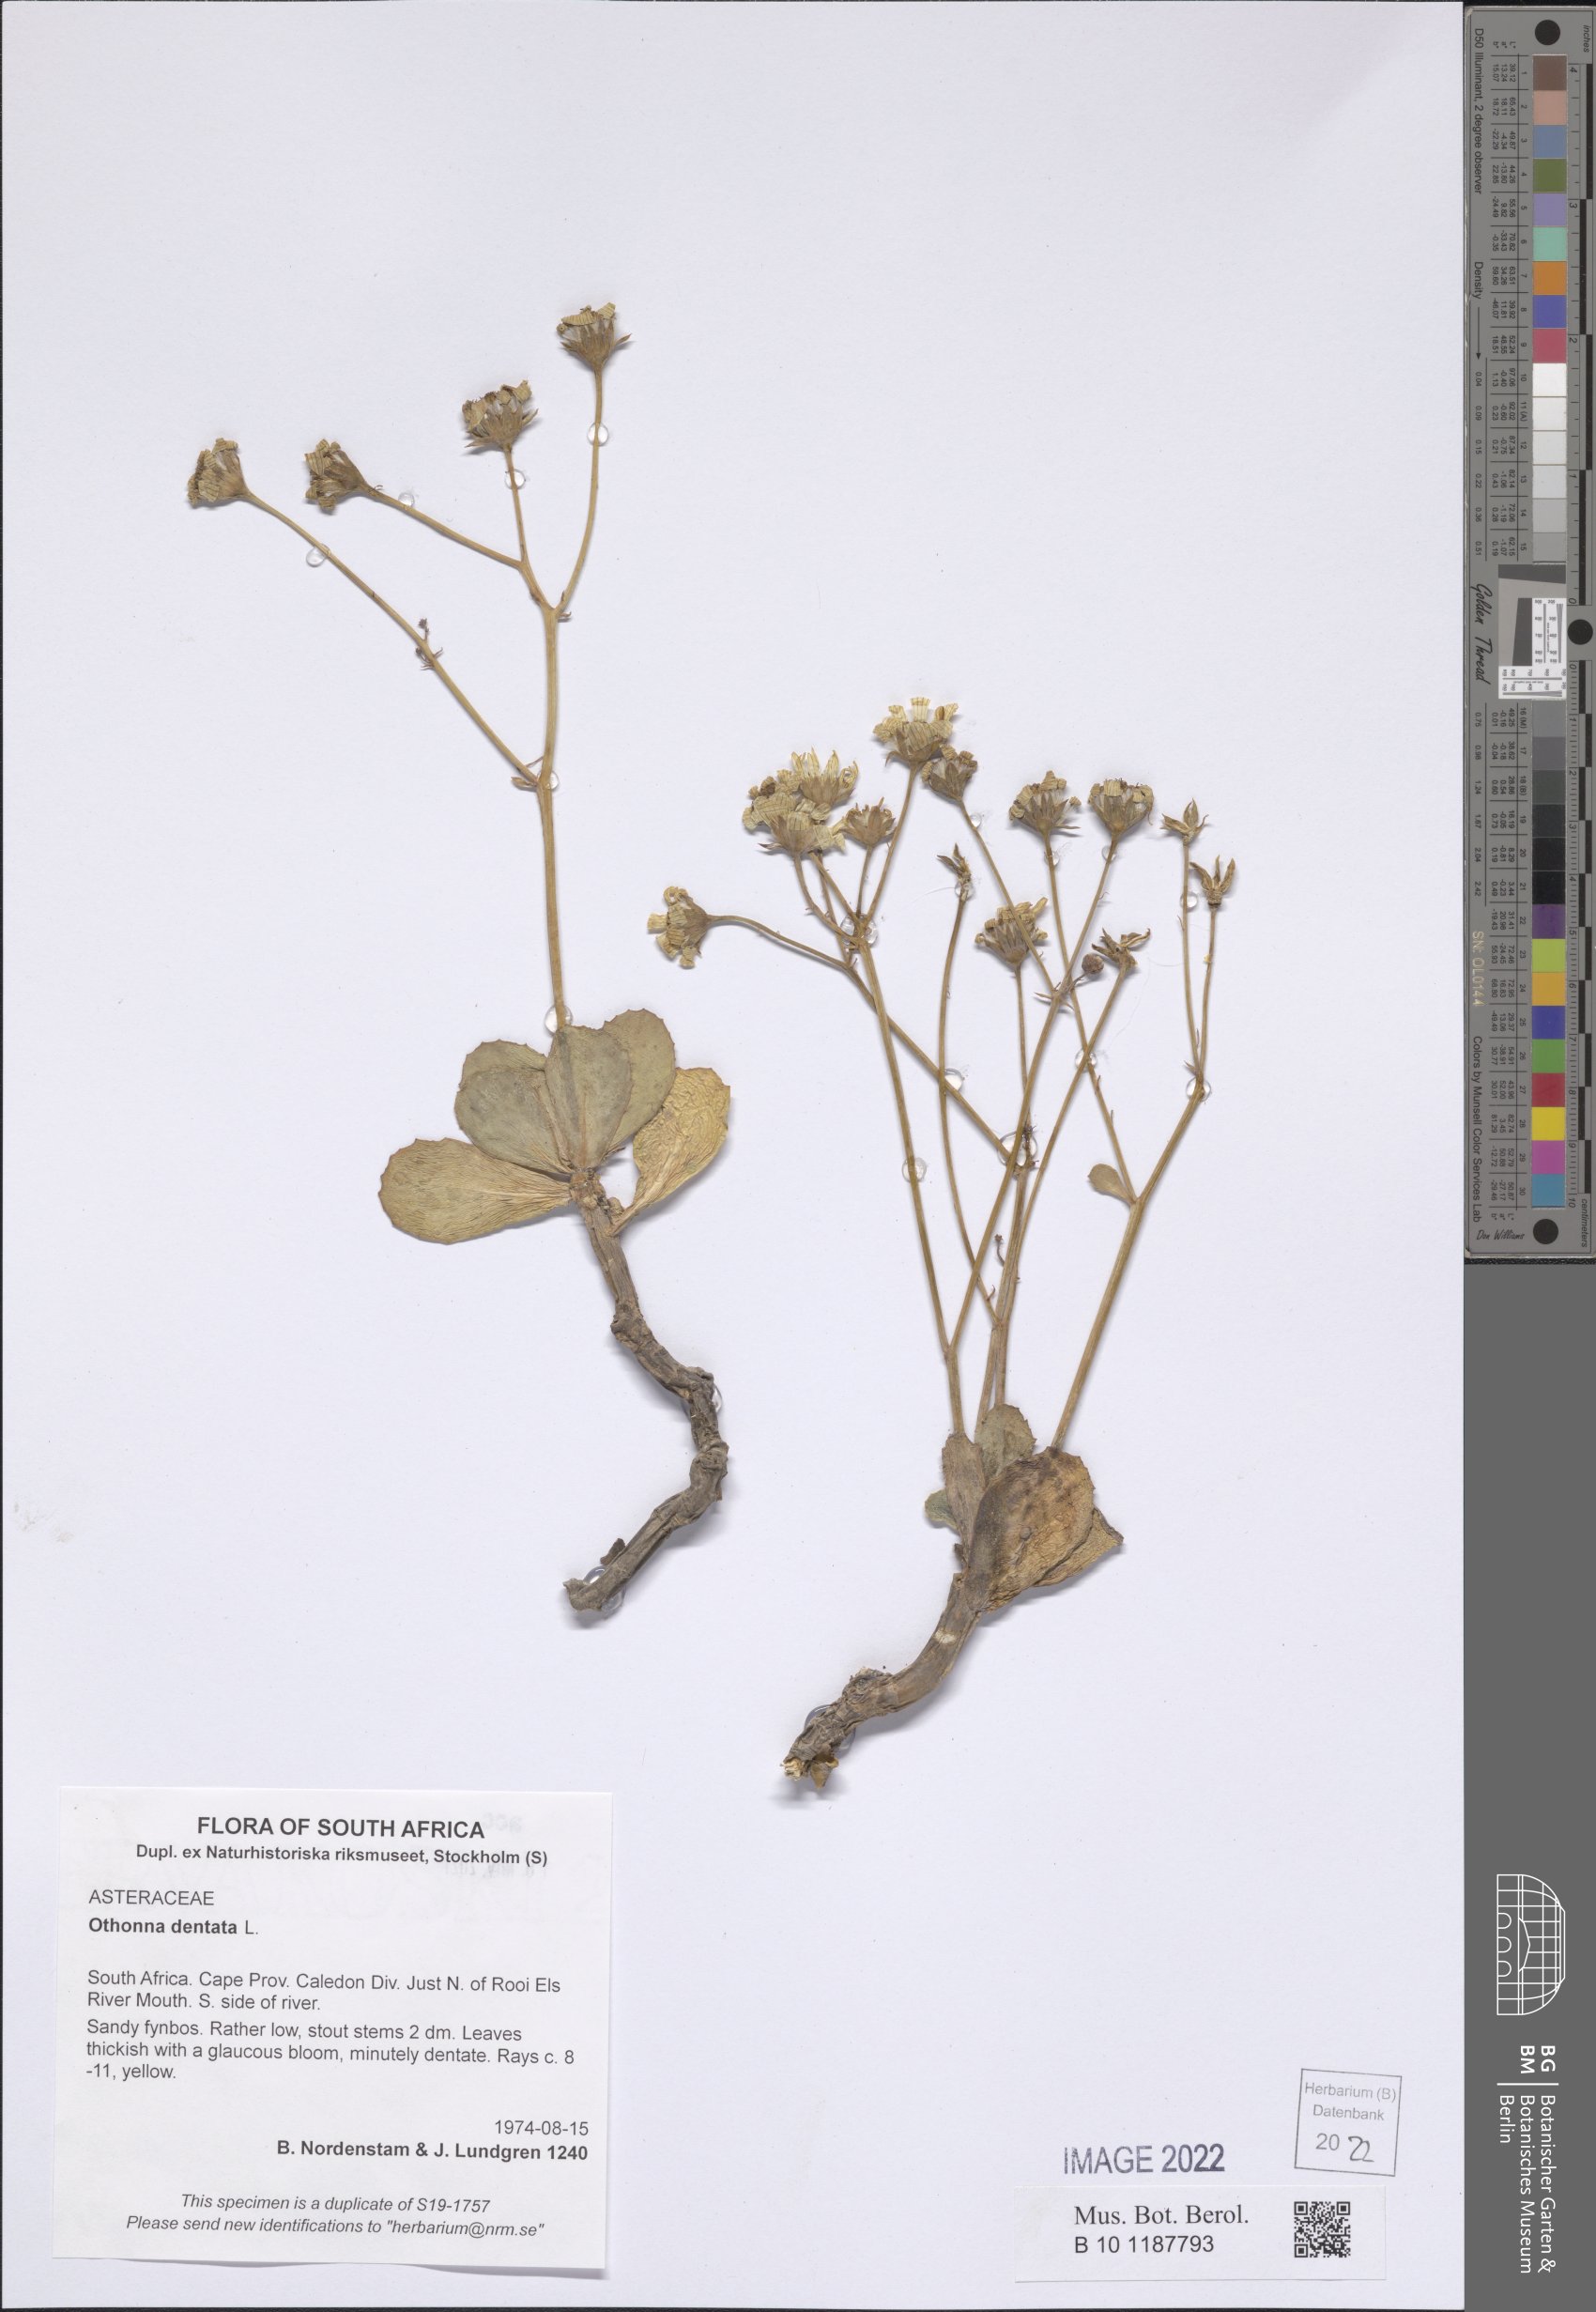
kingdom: Plantae
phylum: Tracheophyta
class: Magnoliopsida
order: Asterales
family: Asteraceae
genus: Othonna
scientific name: Othonna dentata
